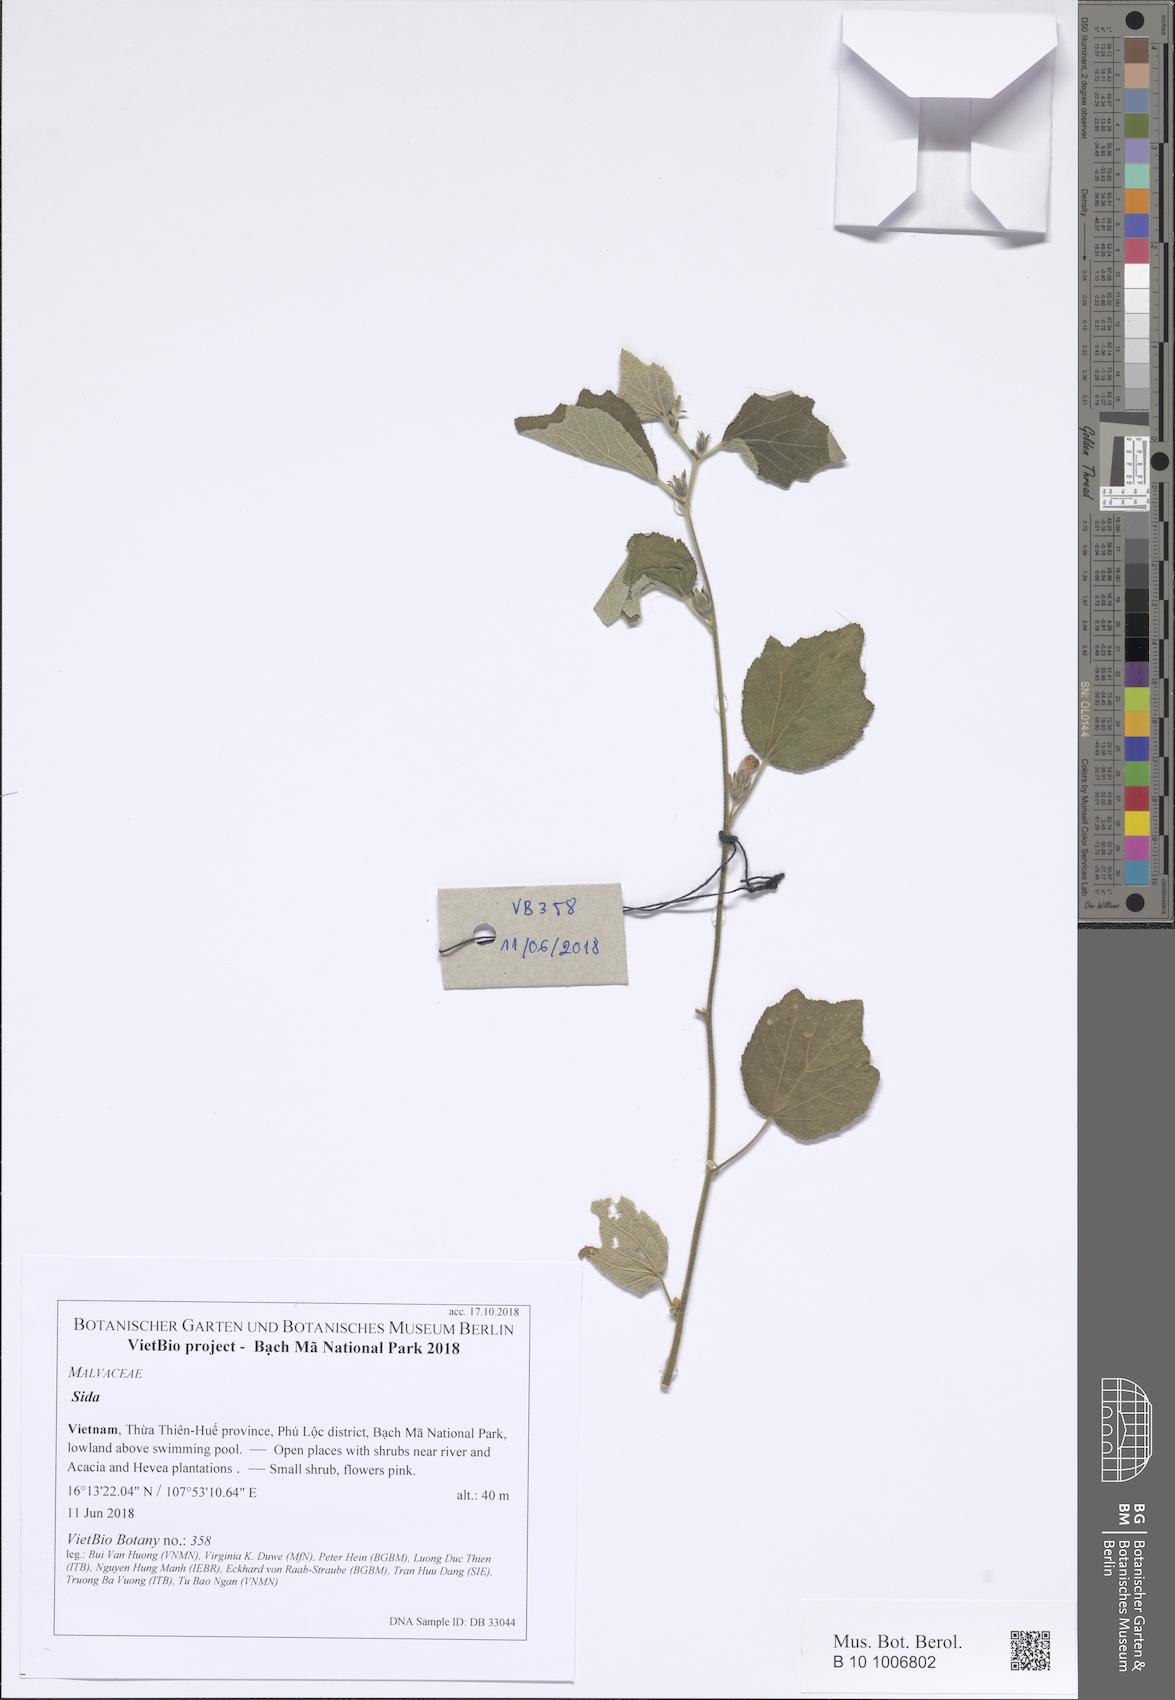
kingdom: Plantae
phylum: Tracheophyta
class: Magnoliopsida
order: Malvales
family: Malvaceae
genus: Sida
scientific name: Sida
